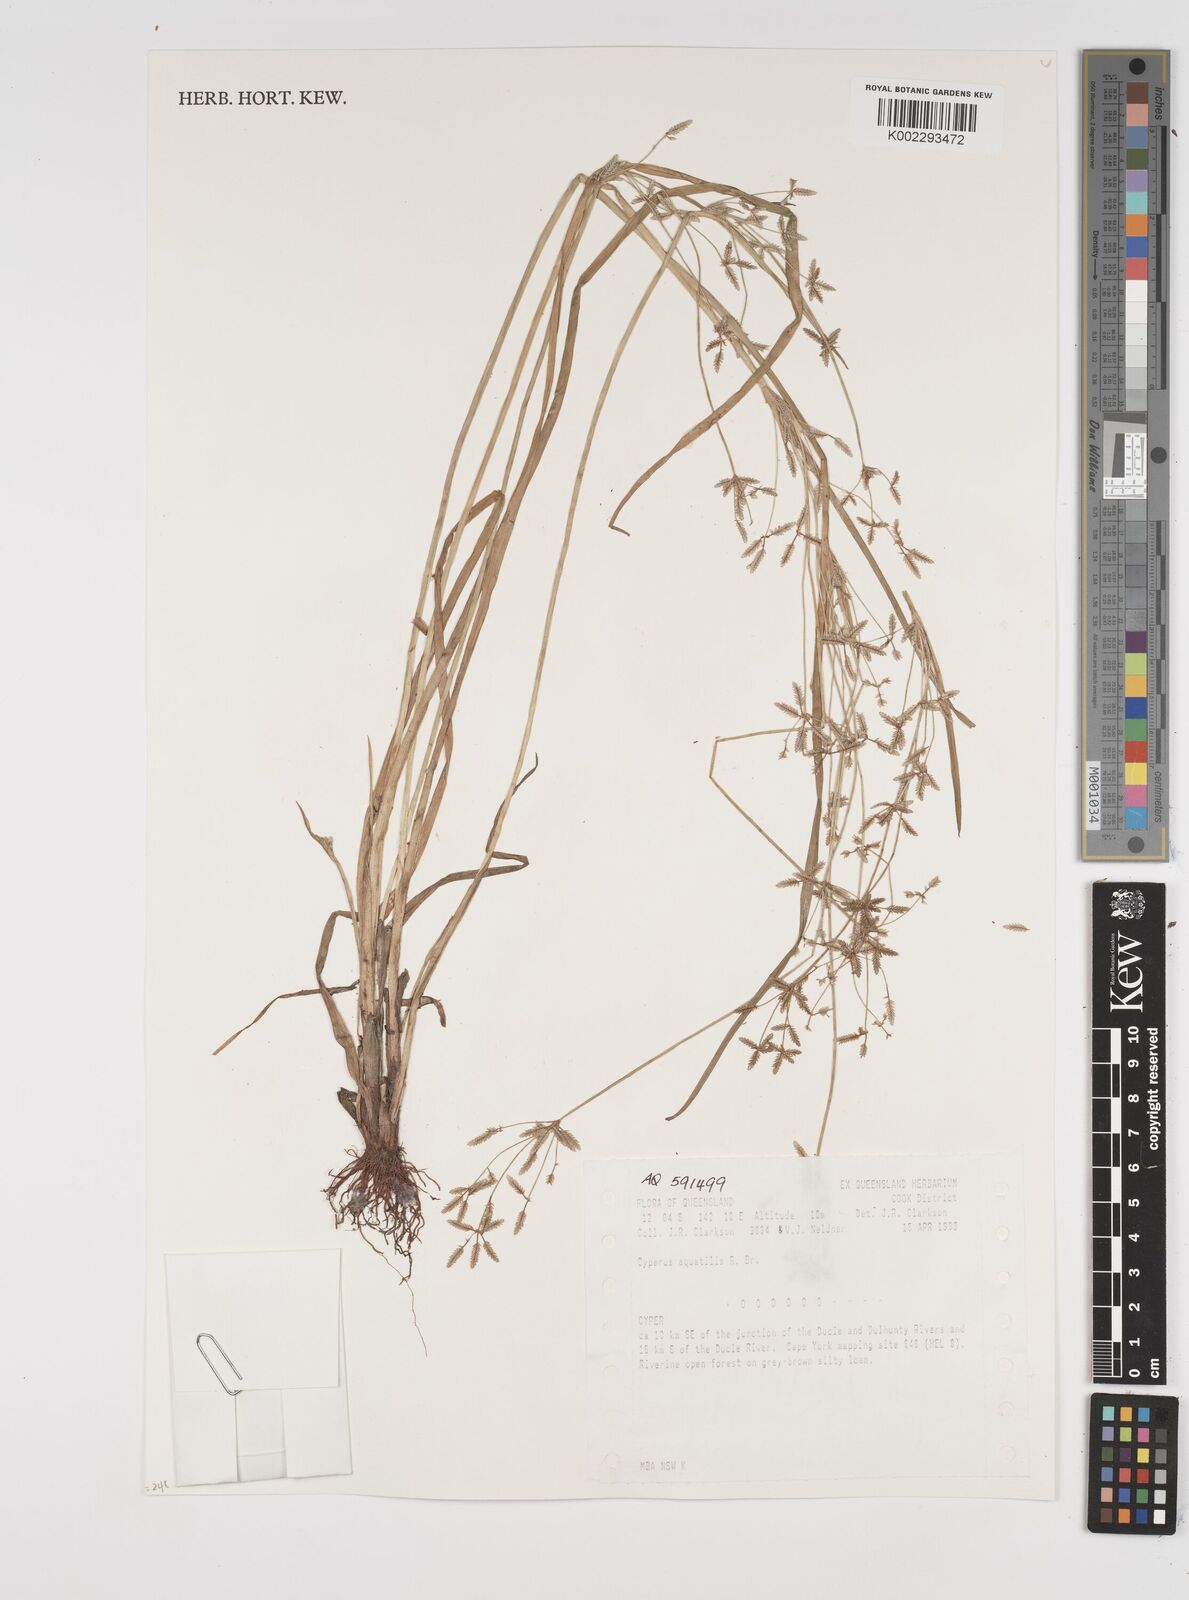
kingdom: Plantae
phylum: Tracheophyta
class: Liliopsida
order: Poales
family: Cyperaceae
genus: Cyperus
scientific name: Cyperus trinervis
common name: Australian flatsedge
